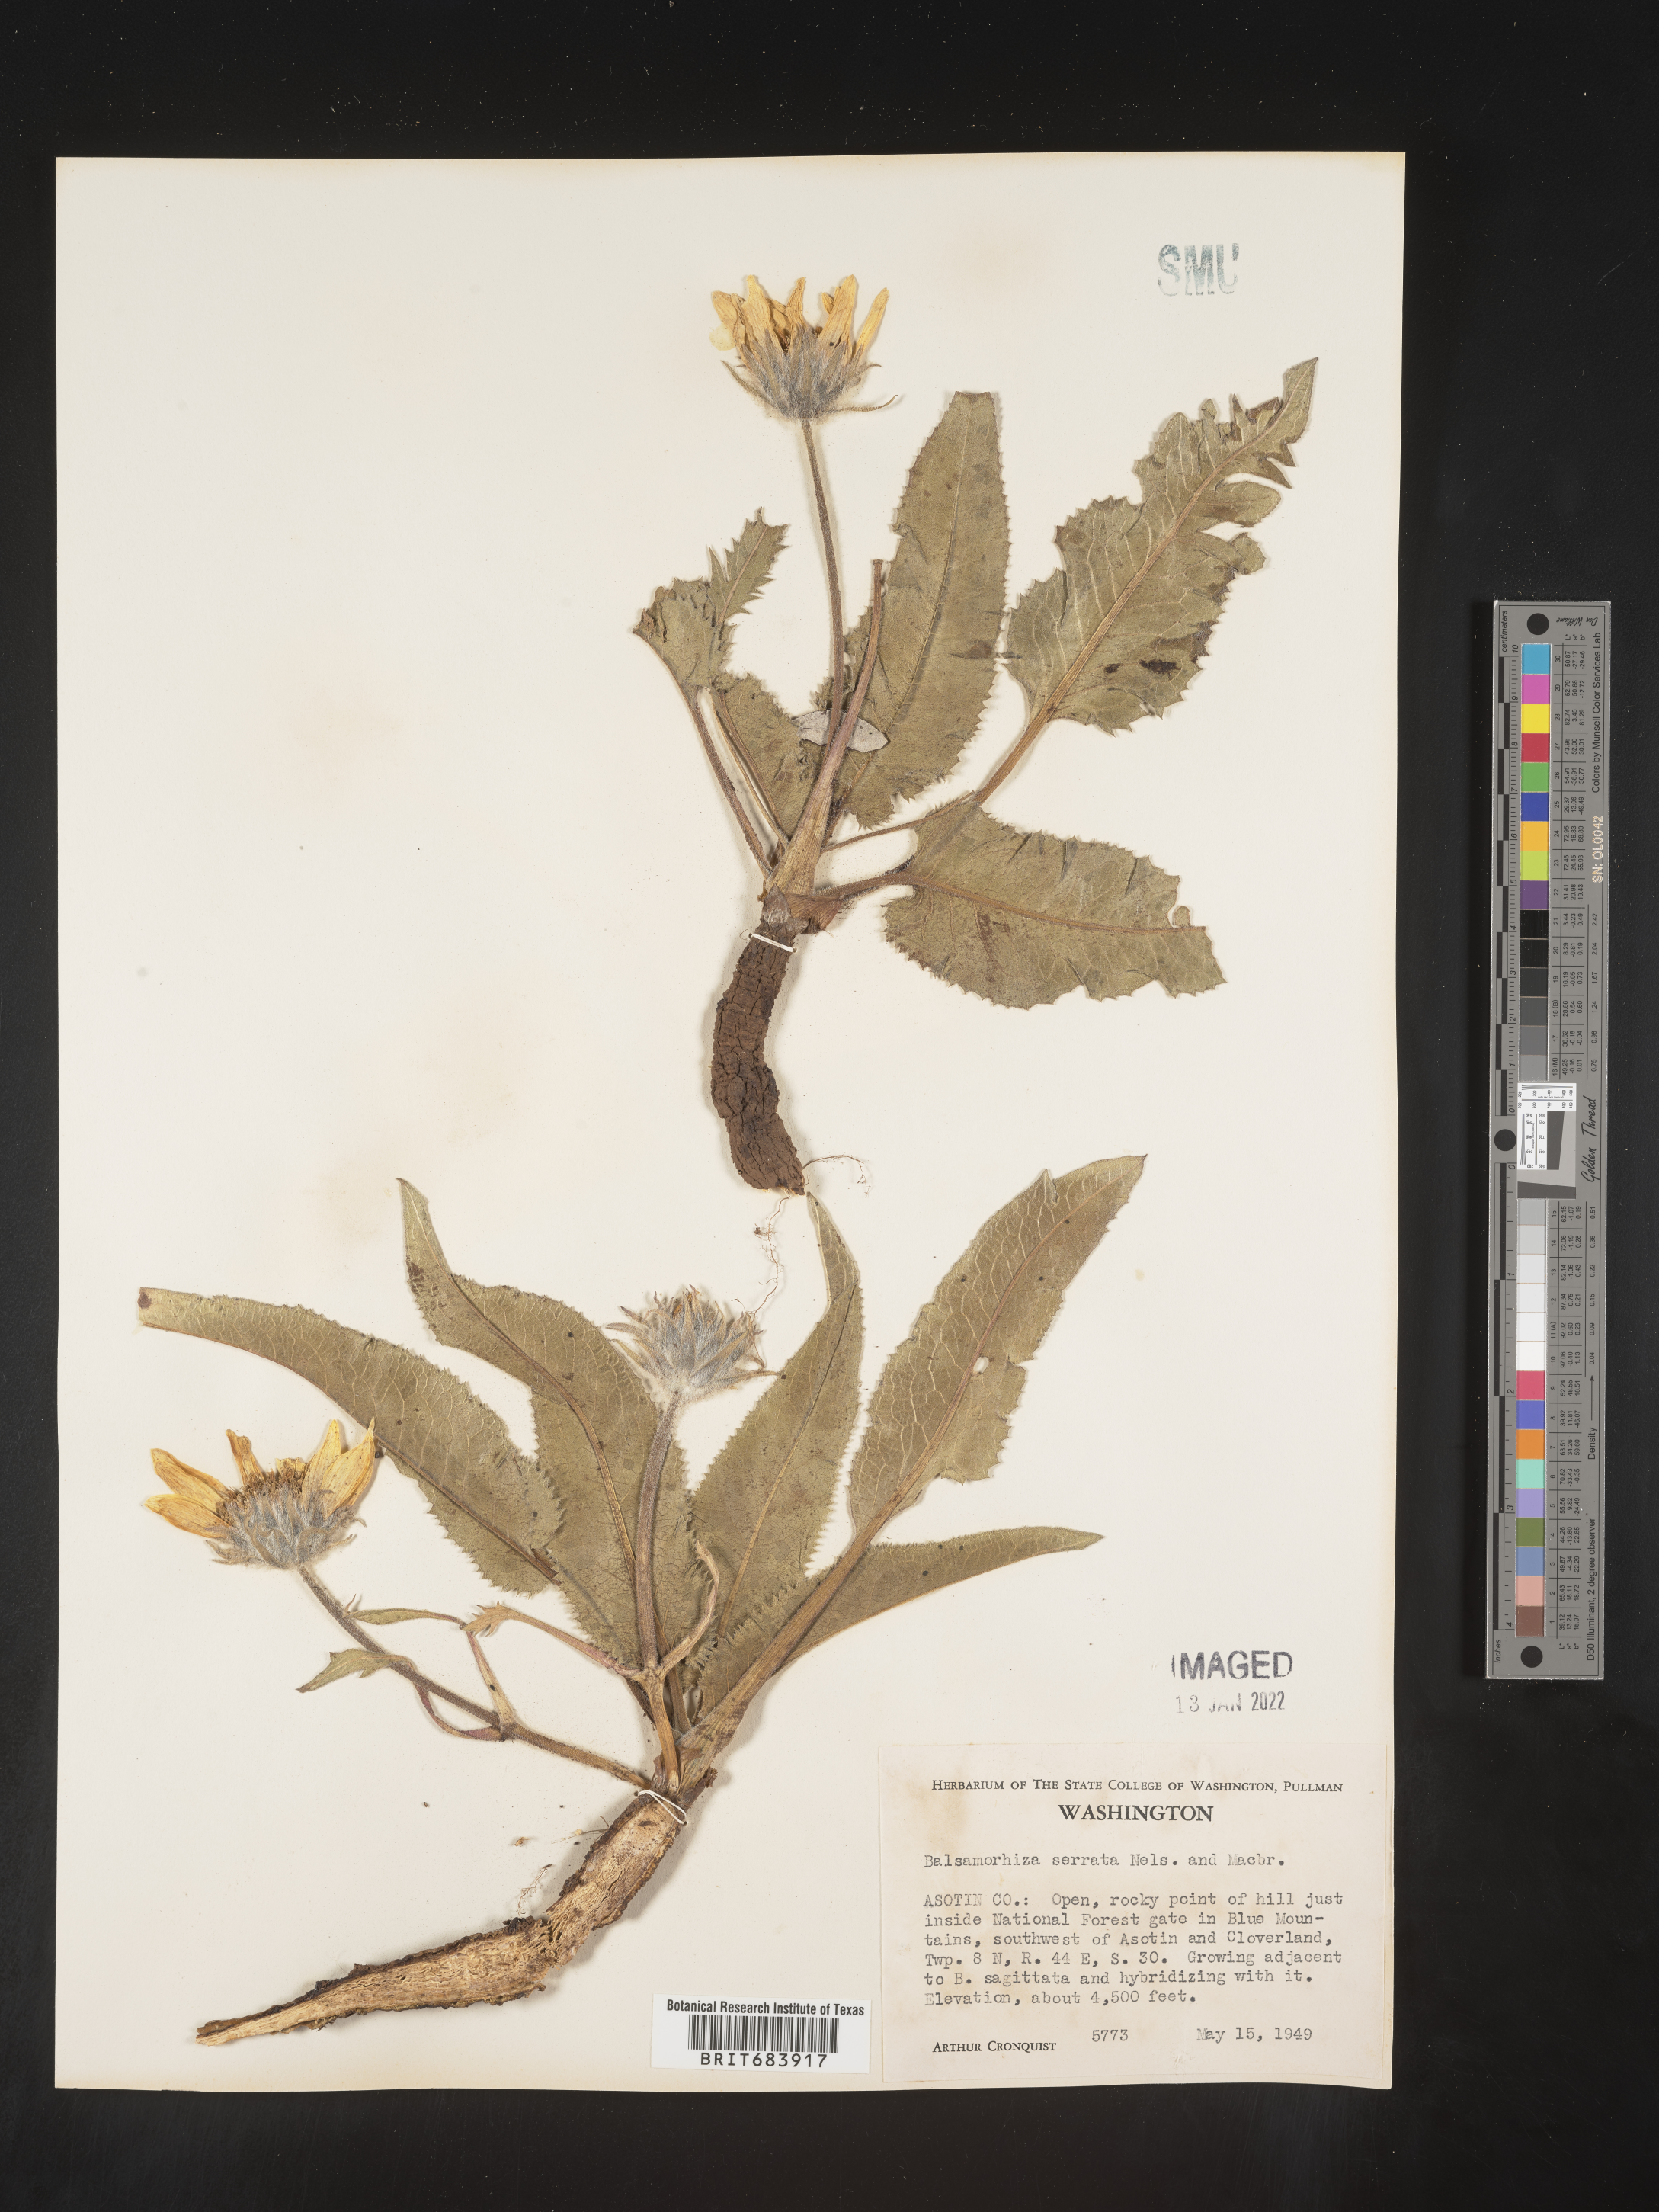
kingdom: Plantae
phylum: Tracheophyta
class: Magnoliopsida
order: Asterales
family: Asteraceae
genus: Balsamorhiza
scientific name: Balsamorhiza serrata
